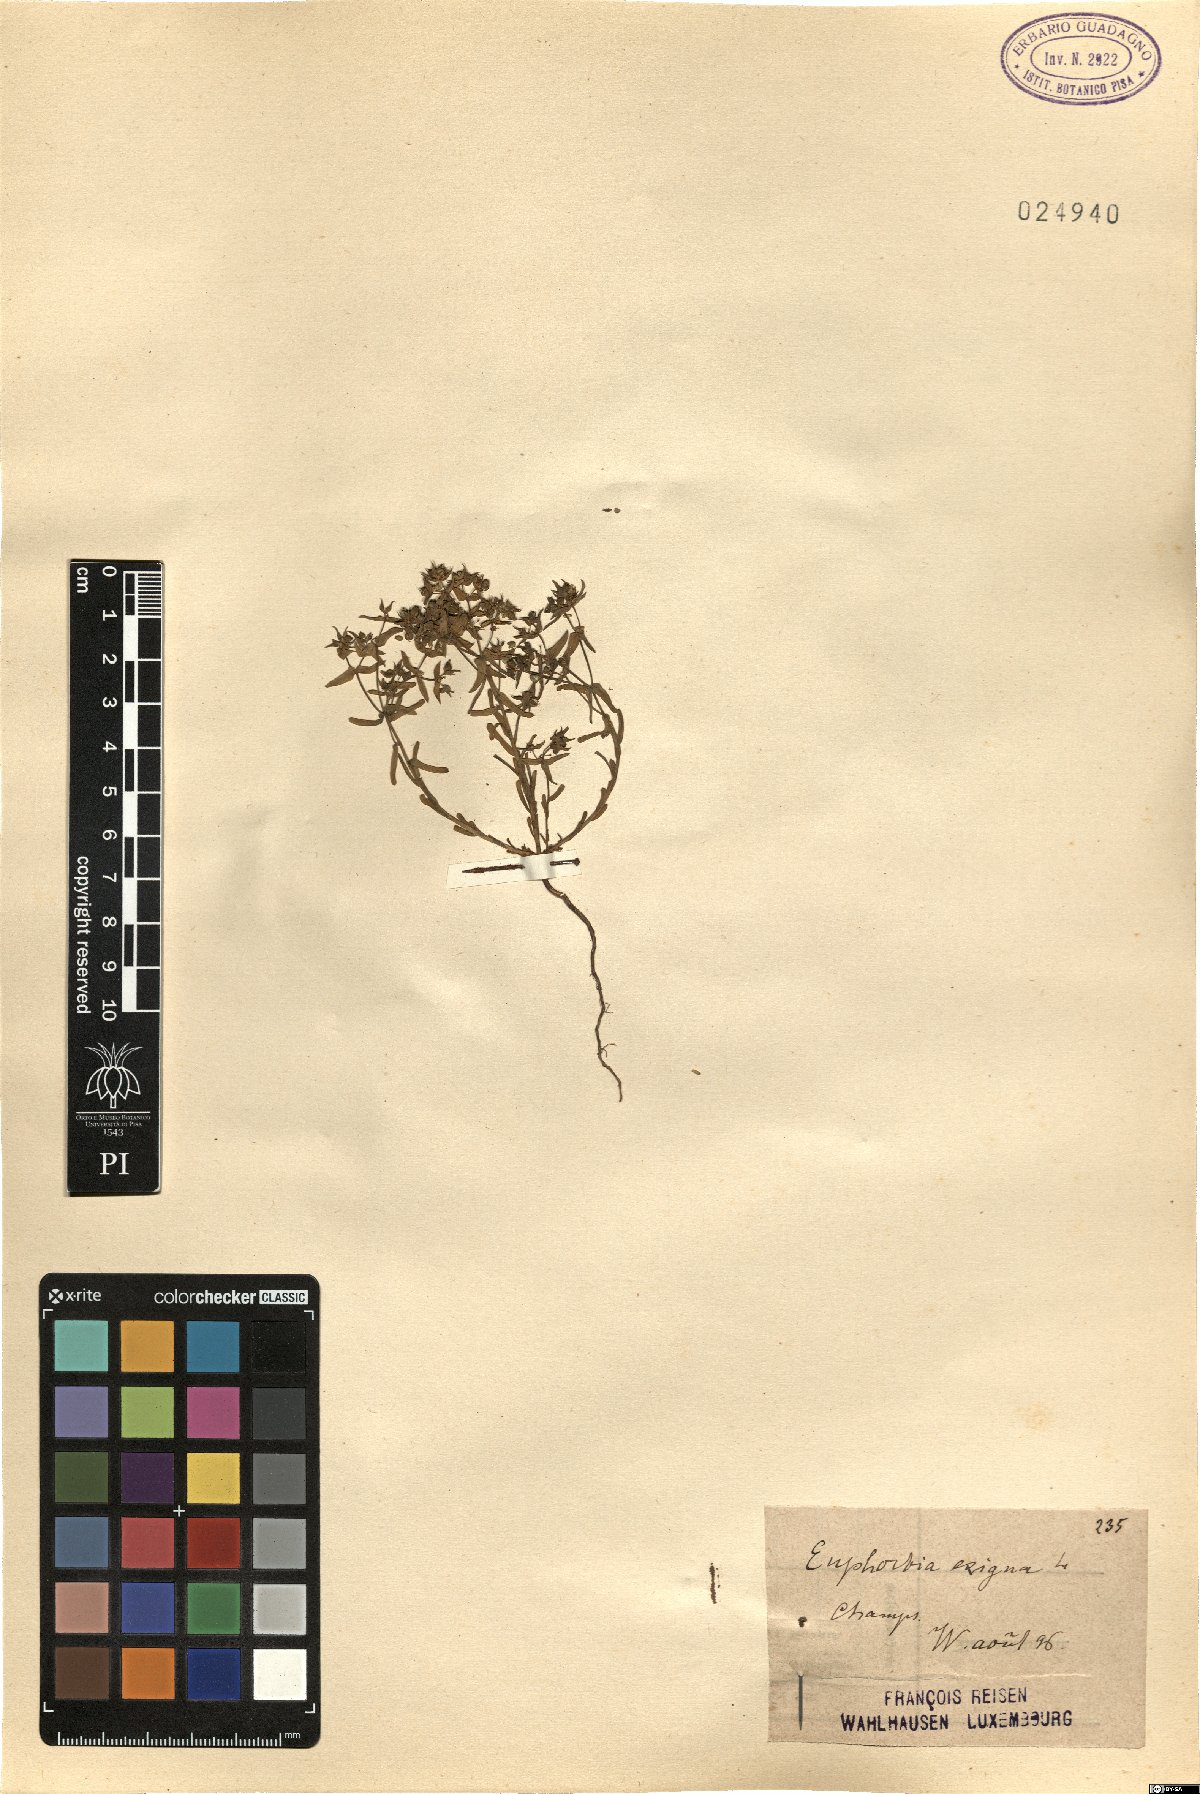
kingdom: Plantae
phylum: Tracheophyta
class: Magnoliopsida
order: Malpighiales
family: Euphorbiaceae
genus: Euphorbia
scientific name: Euphorbia exigua
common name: Dwarf spurge
